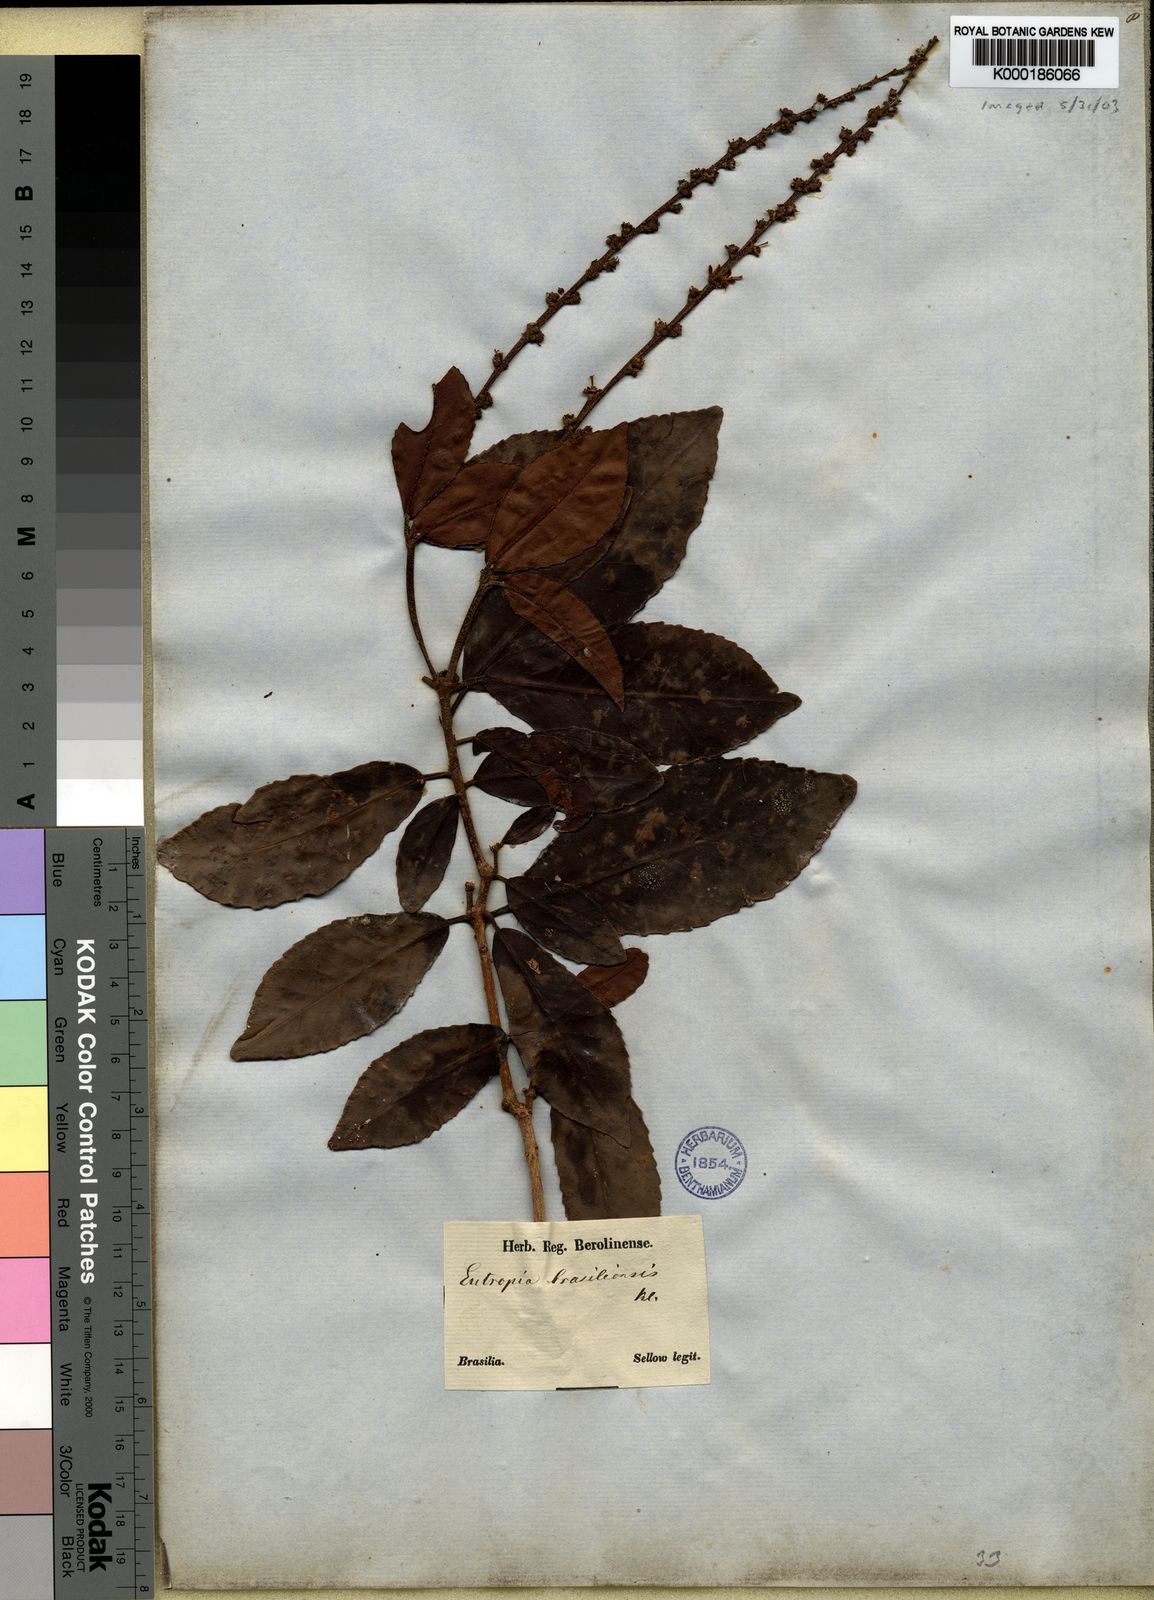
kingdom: Plantae
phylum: Tracheophyta
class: Magnoliopsida
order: Malpighiales
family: Euphorbiaceae
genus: Croton
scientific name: Croton
